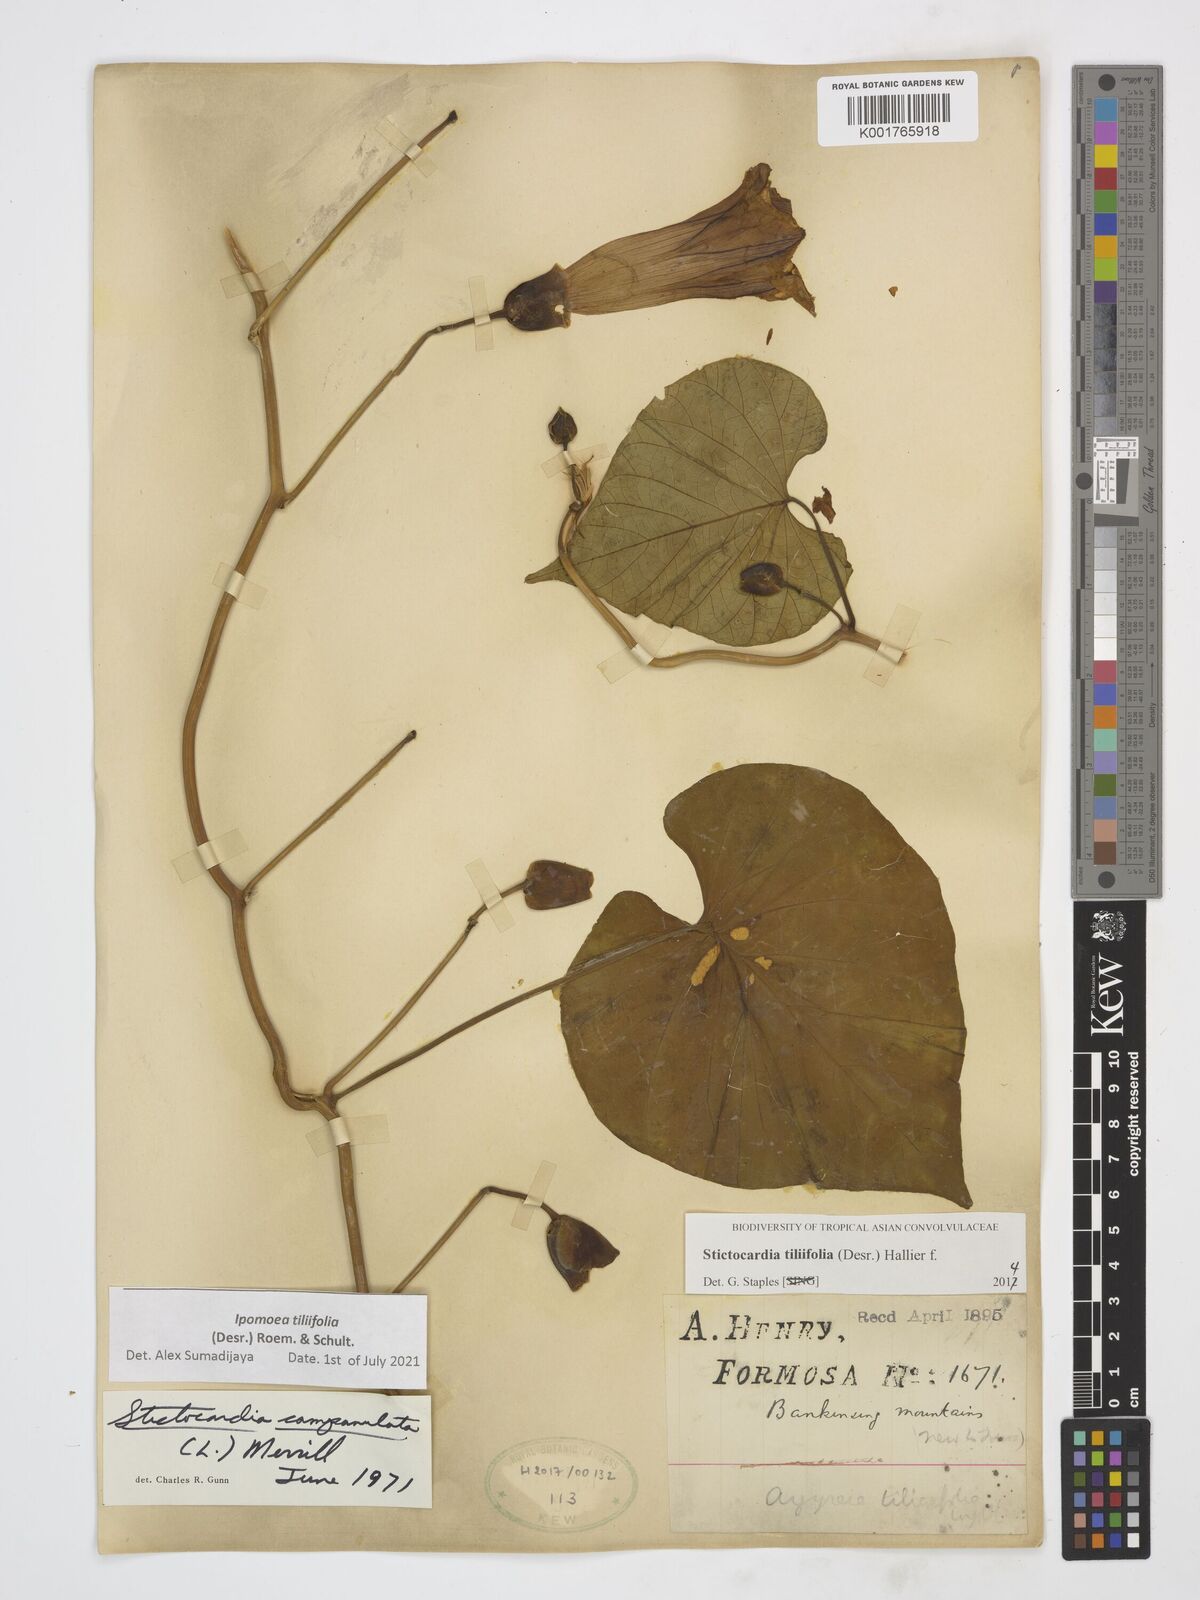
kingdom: Plantae
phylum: Tracheophyta
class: Magnoliopsida
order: Solanales
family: Convolvulaceae
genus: Stictocardia
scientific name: Stictocardia tiliifolia
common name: Spottedheart
